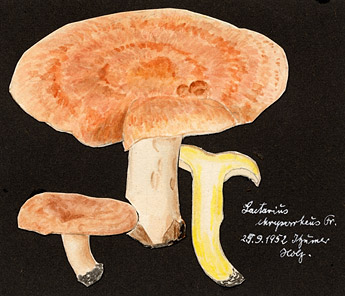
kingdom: Fungi
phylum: Basidiomycota
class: Agaricomycetes
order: Russulales
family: Russulaceae
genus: Lactarius
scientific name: Lactarius chrysorrheus
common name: Yellowdrop milkcap
